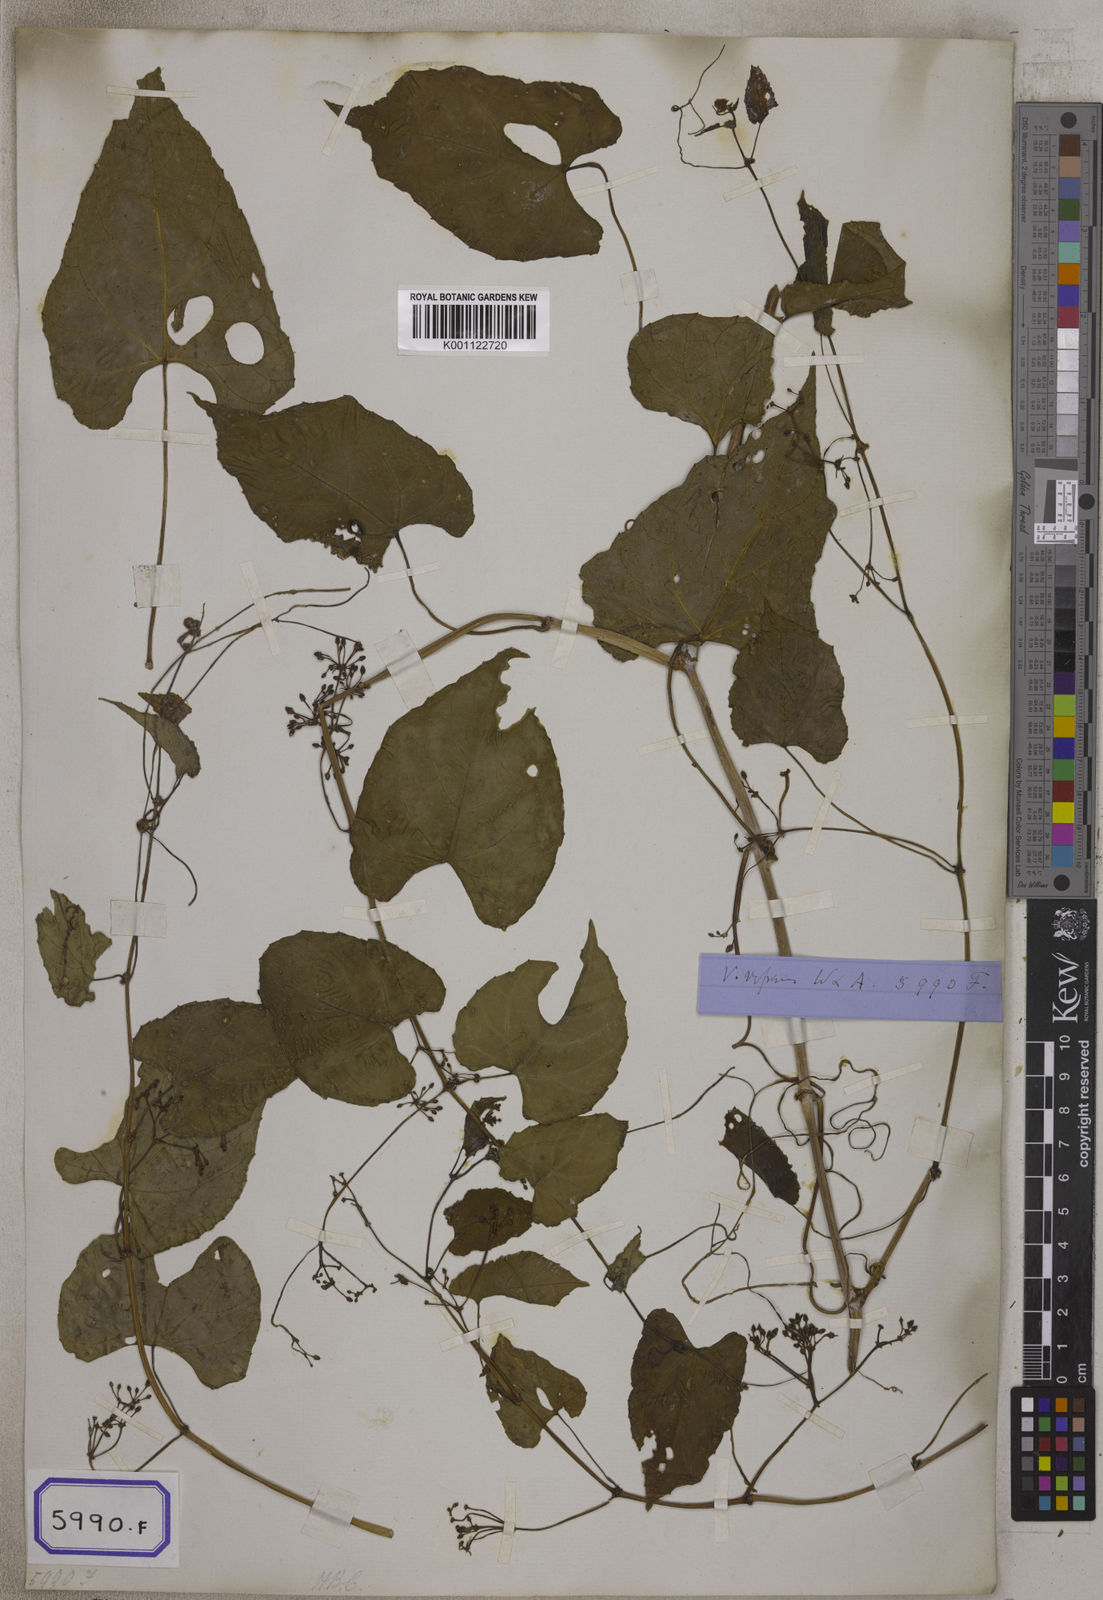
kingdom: Plantae
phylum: Tracheophyta
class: Magnoliopsida
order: Vitales
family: Vitaceae
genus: Cissus
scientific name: Cissus repens
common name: Cissus
